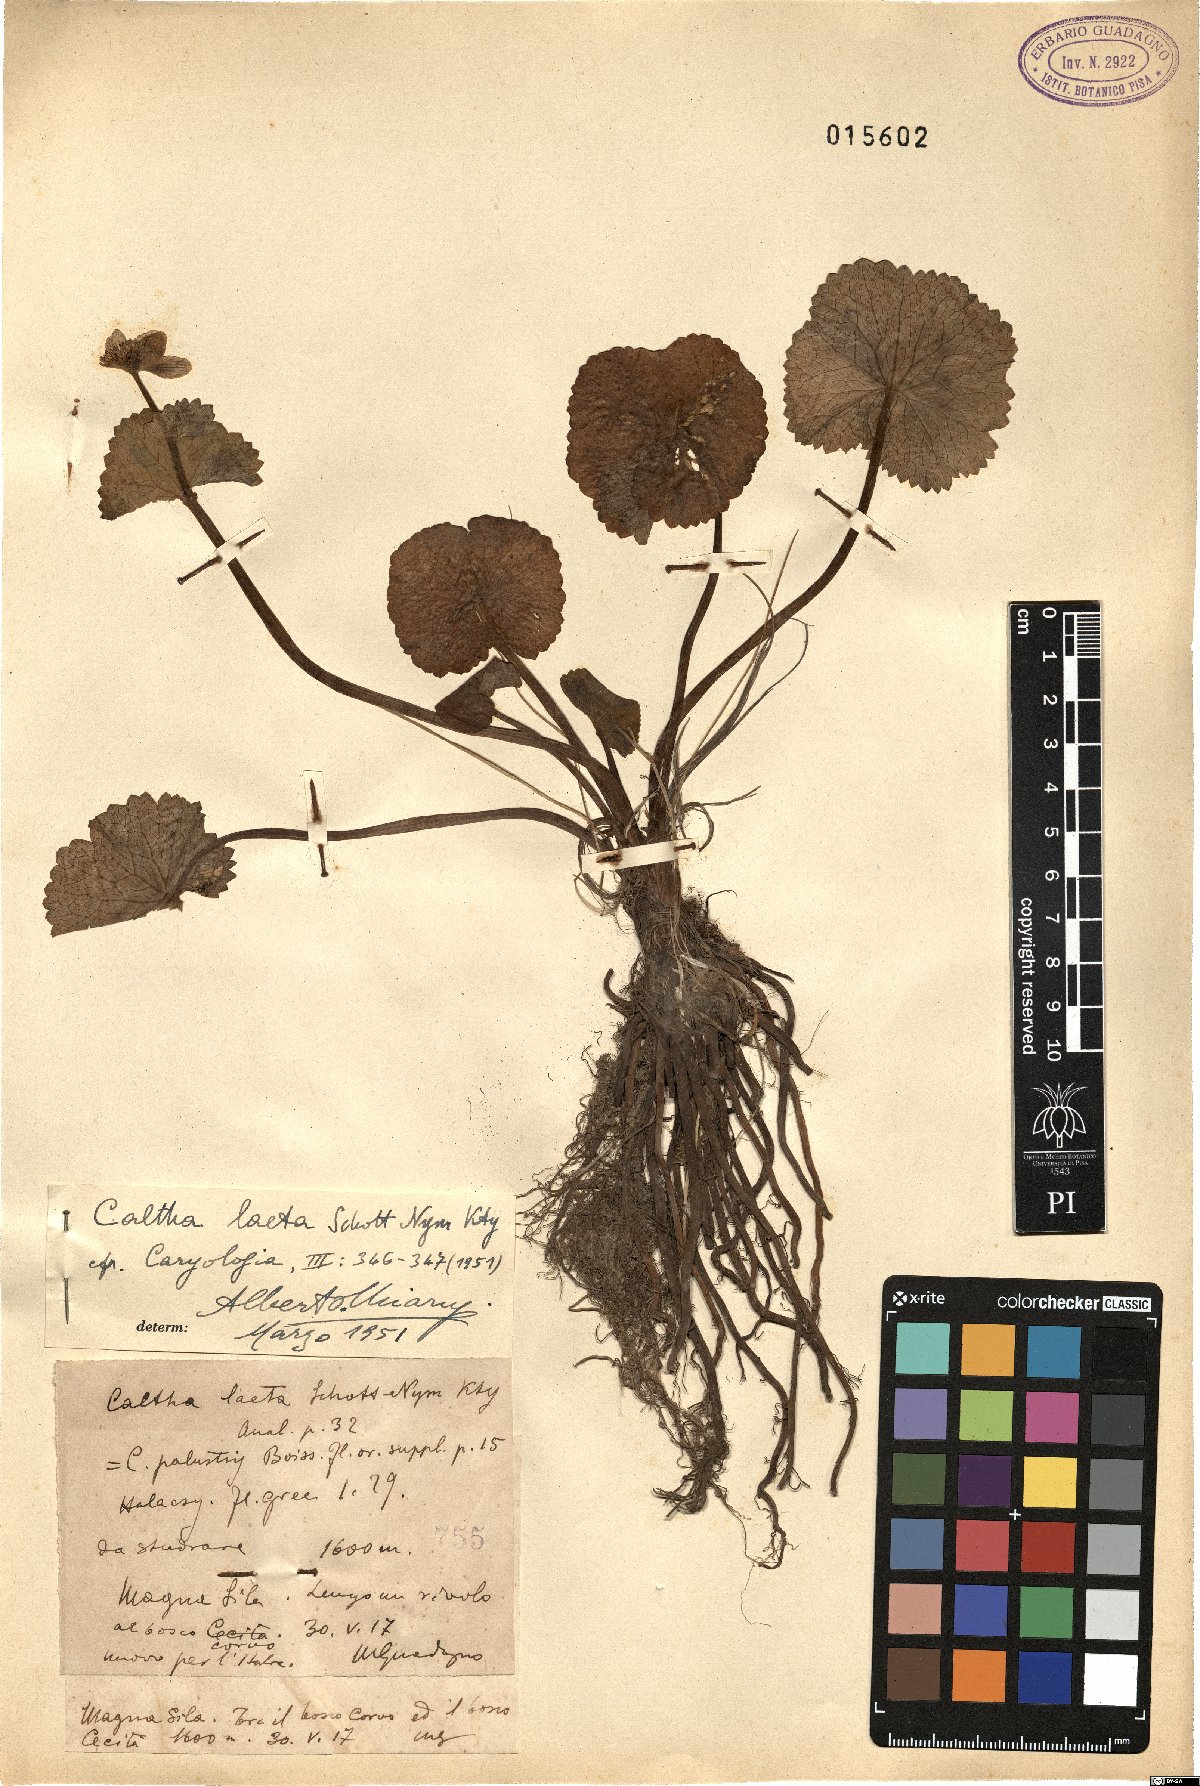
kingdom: Plantae
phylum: Tracheophyta
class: Magnoliopsida
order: Ranunculales
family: Ranunculaceae
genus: Caltha
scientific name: Caltha palustris
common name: Marsh marigold
